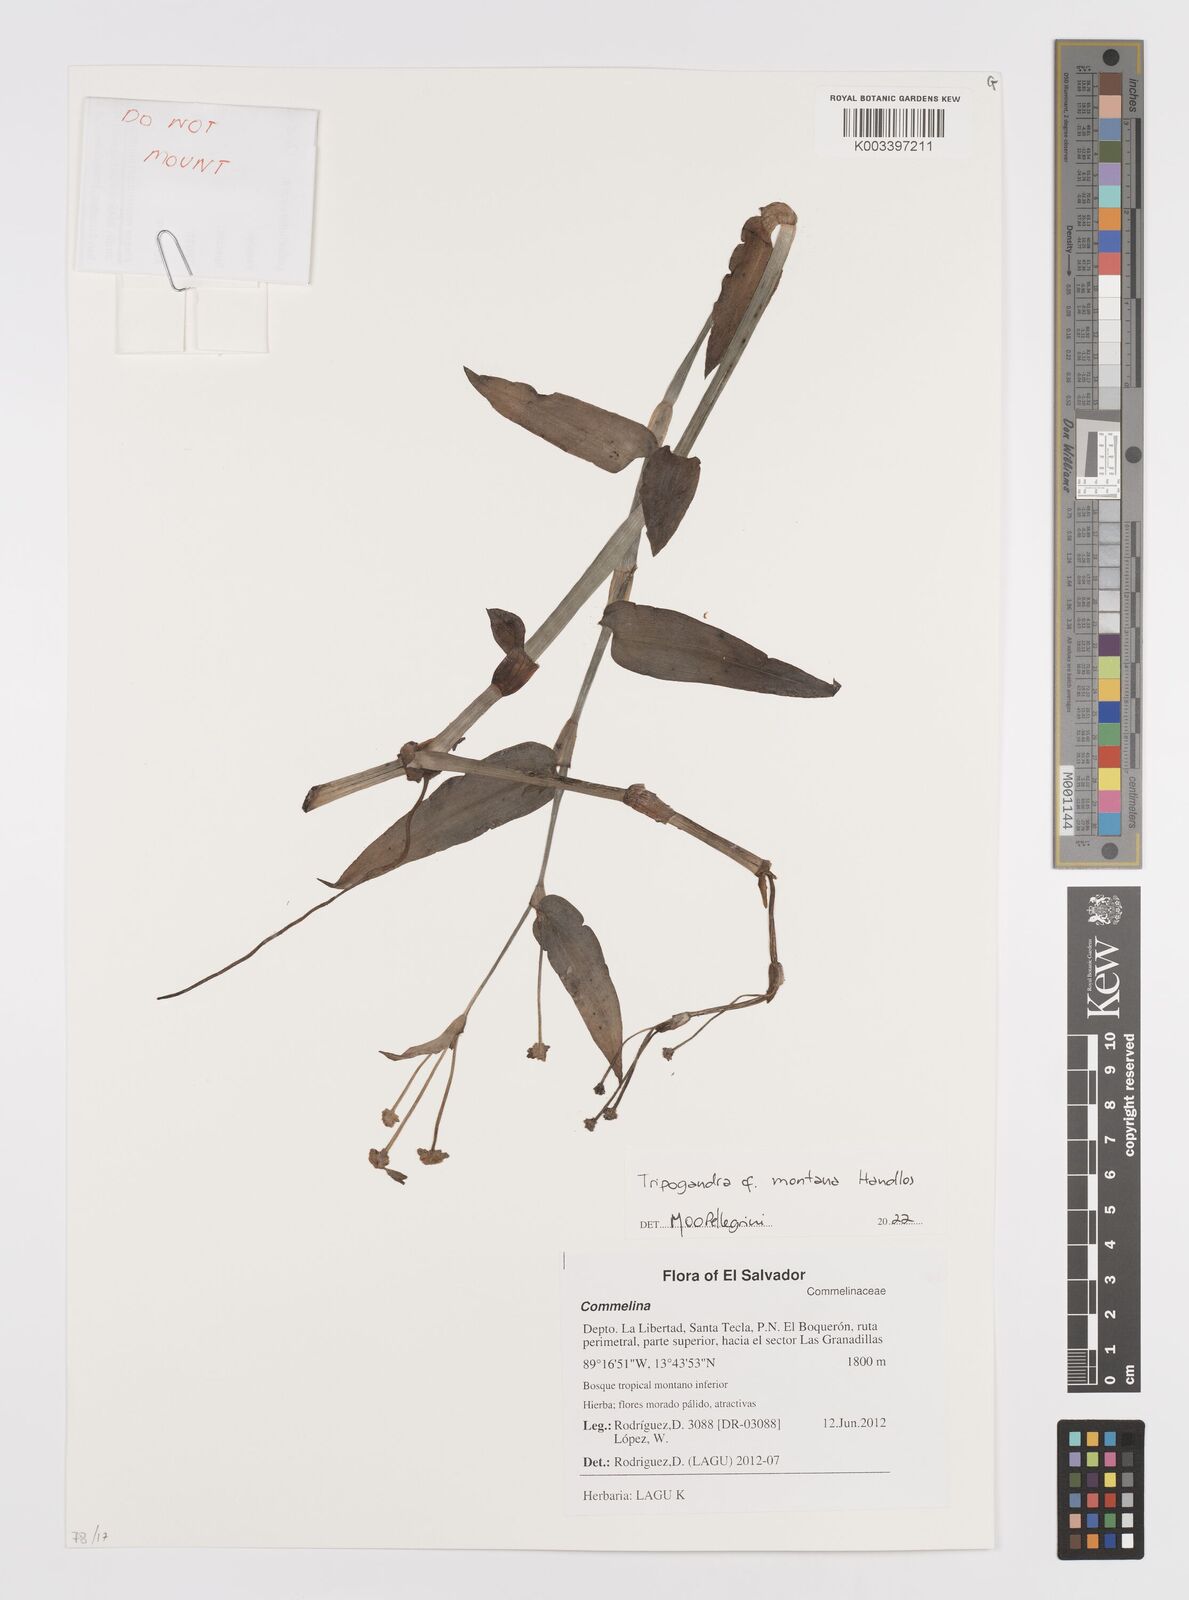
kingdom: Plantae
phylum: Tracheophyta
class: Liliopsida
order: Commelinales
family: Commelinaceae
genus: Callisia
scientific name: Callisia montana
